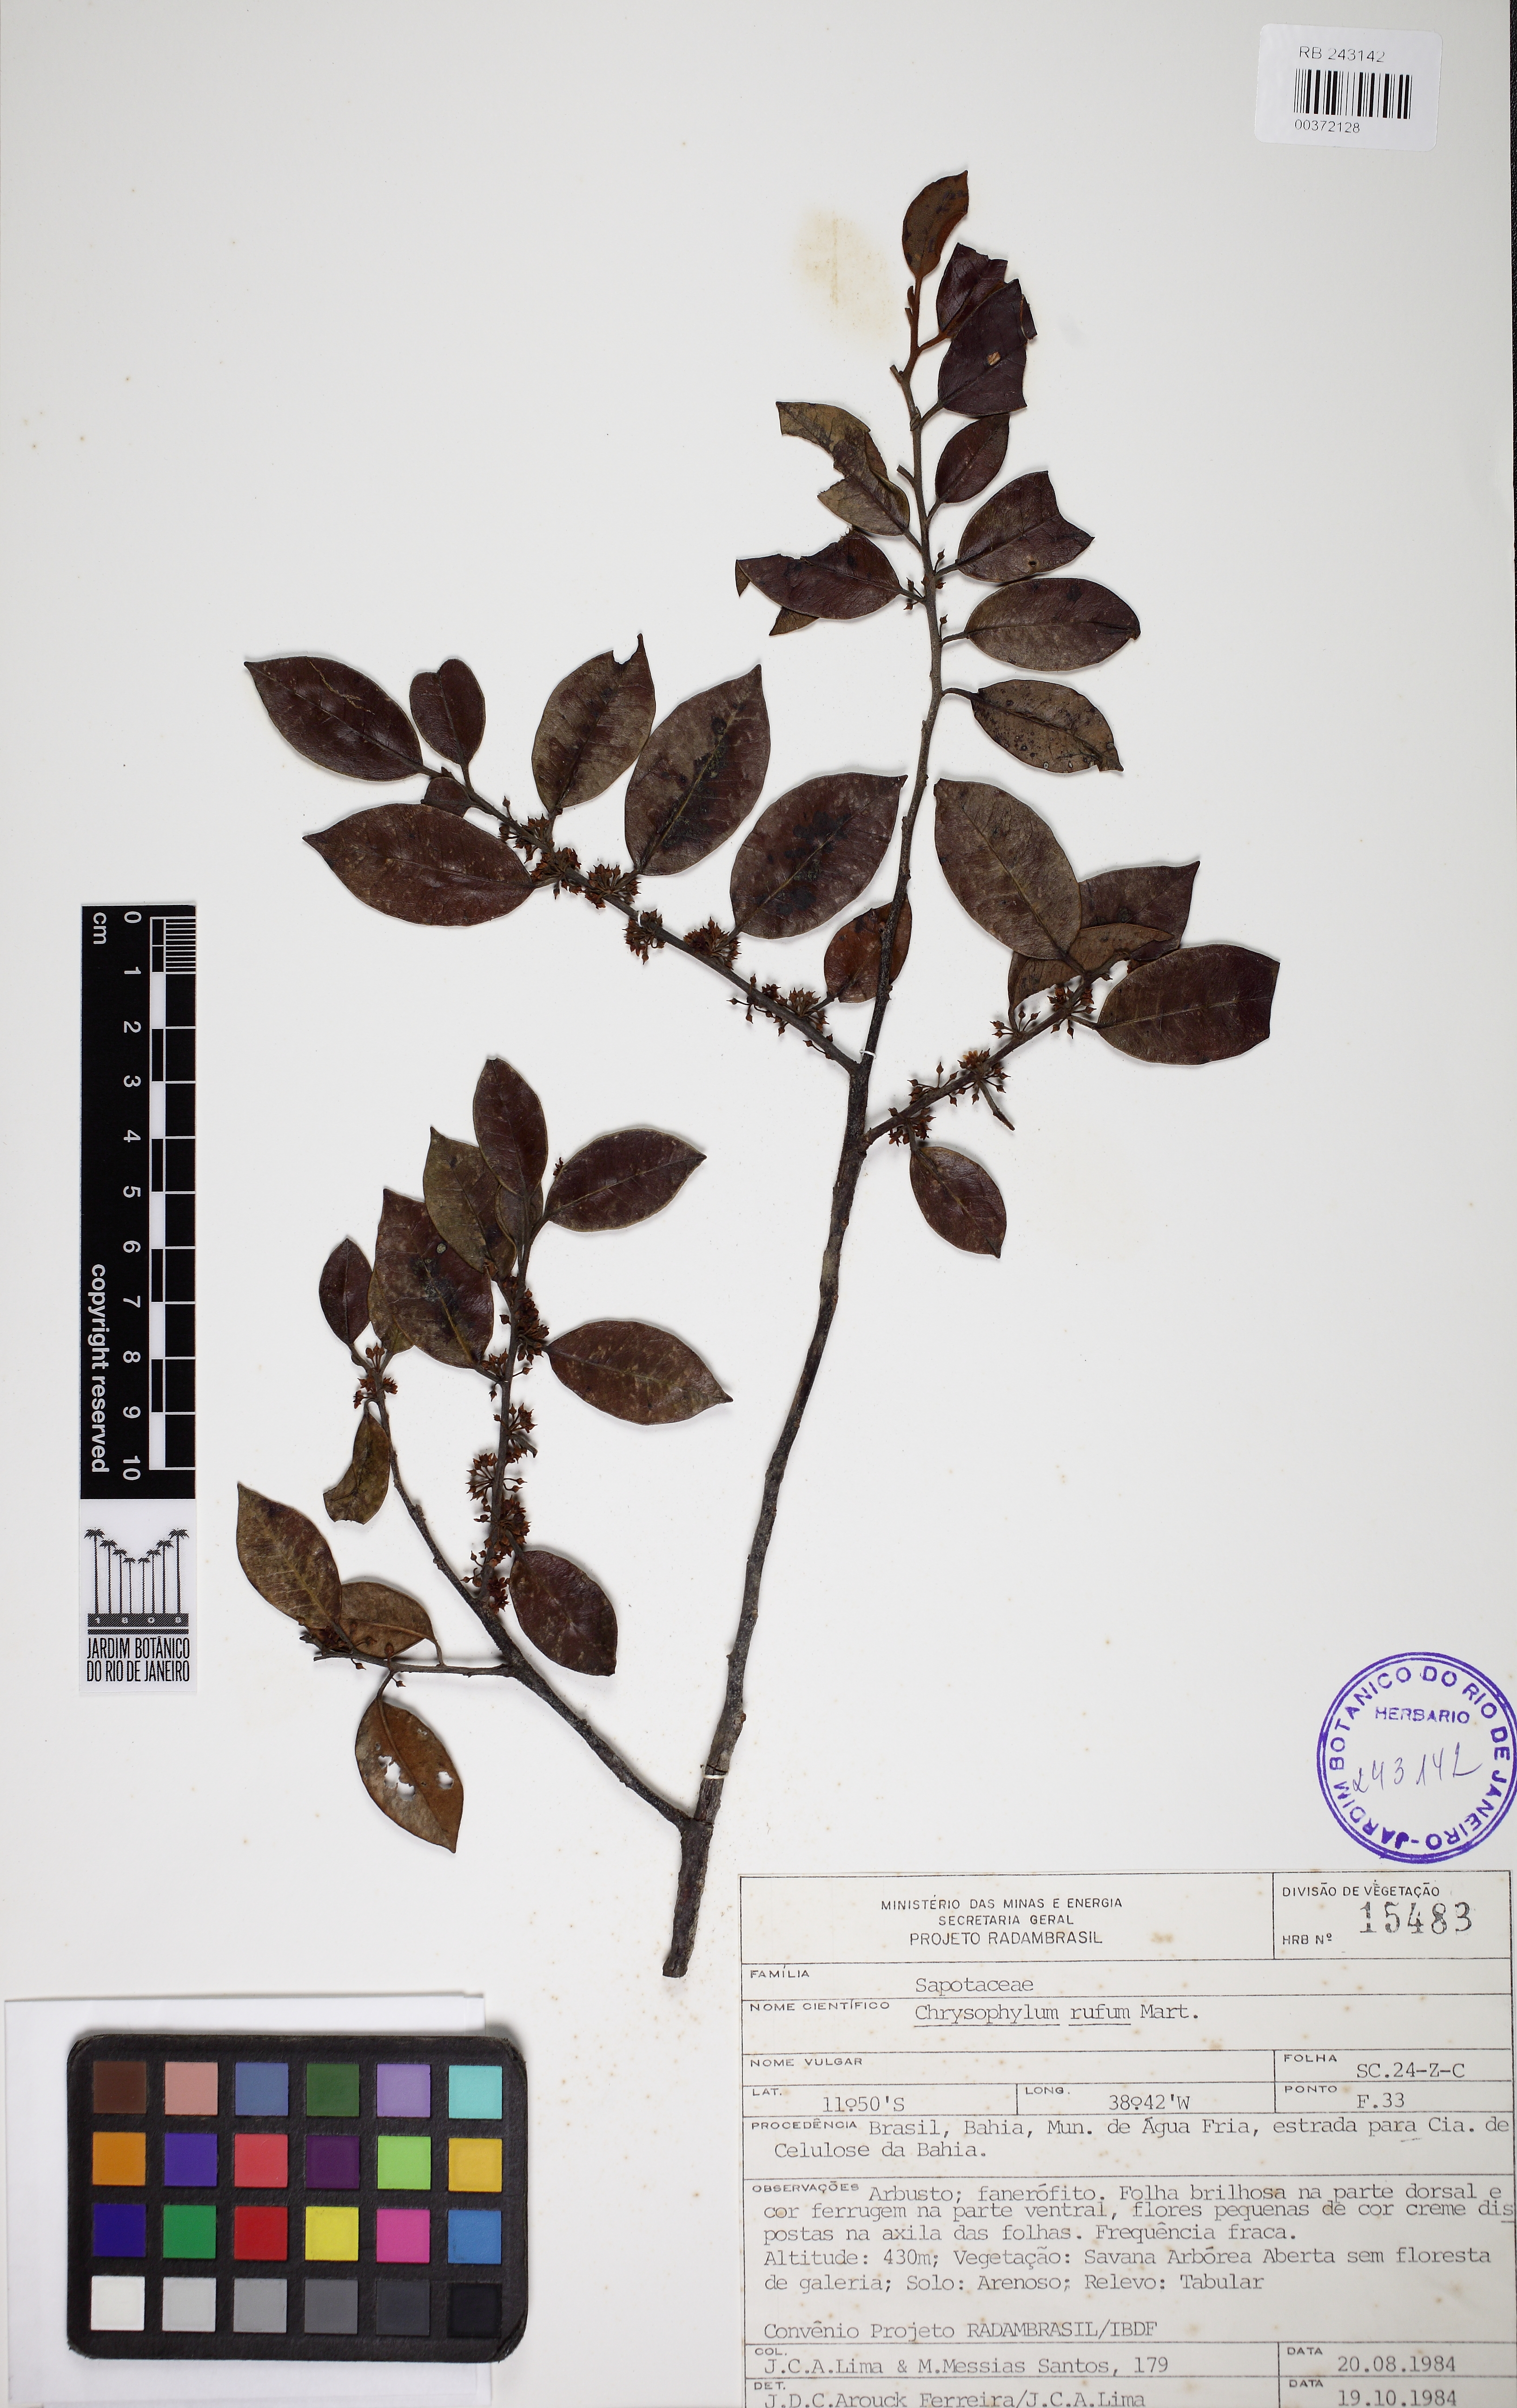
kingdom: Plantae
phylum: Tracheophyta
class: Magnoliopsida
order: Ericales
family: Sapotaceae
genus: Chrysophyllum
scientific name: Chrysophyllum rufum
